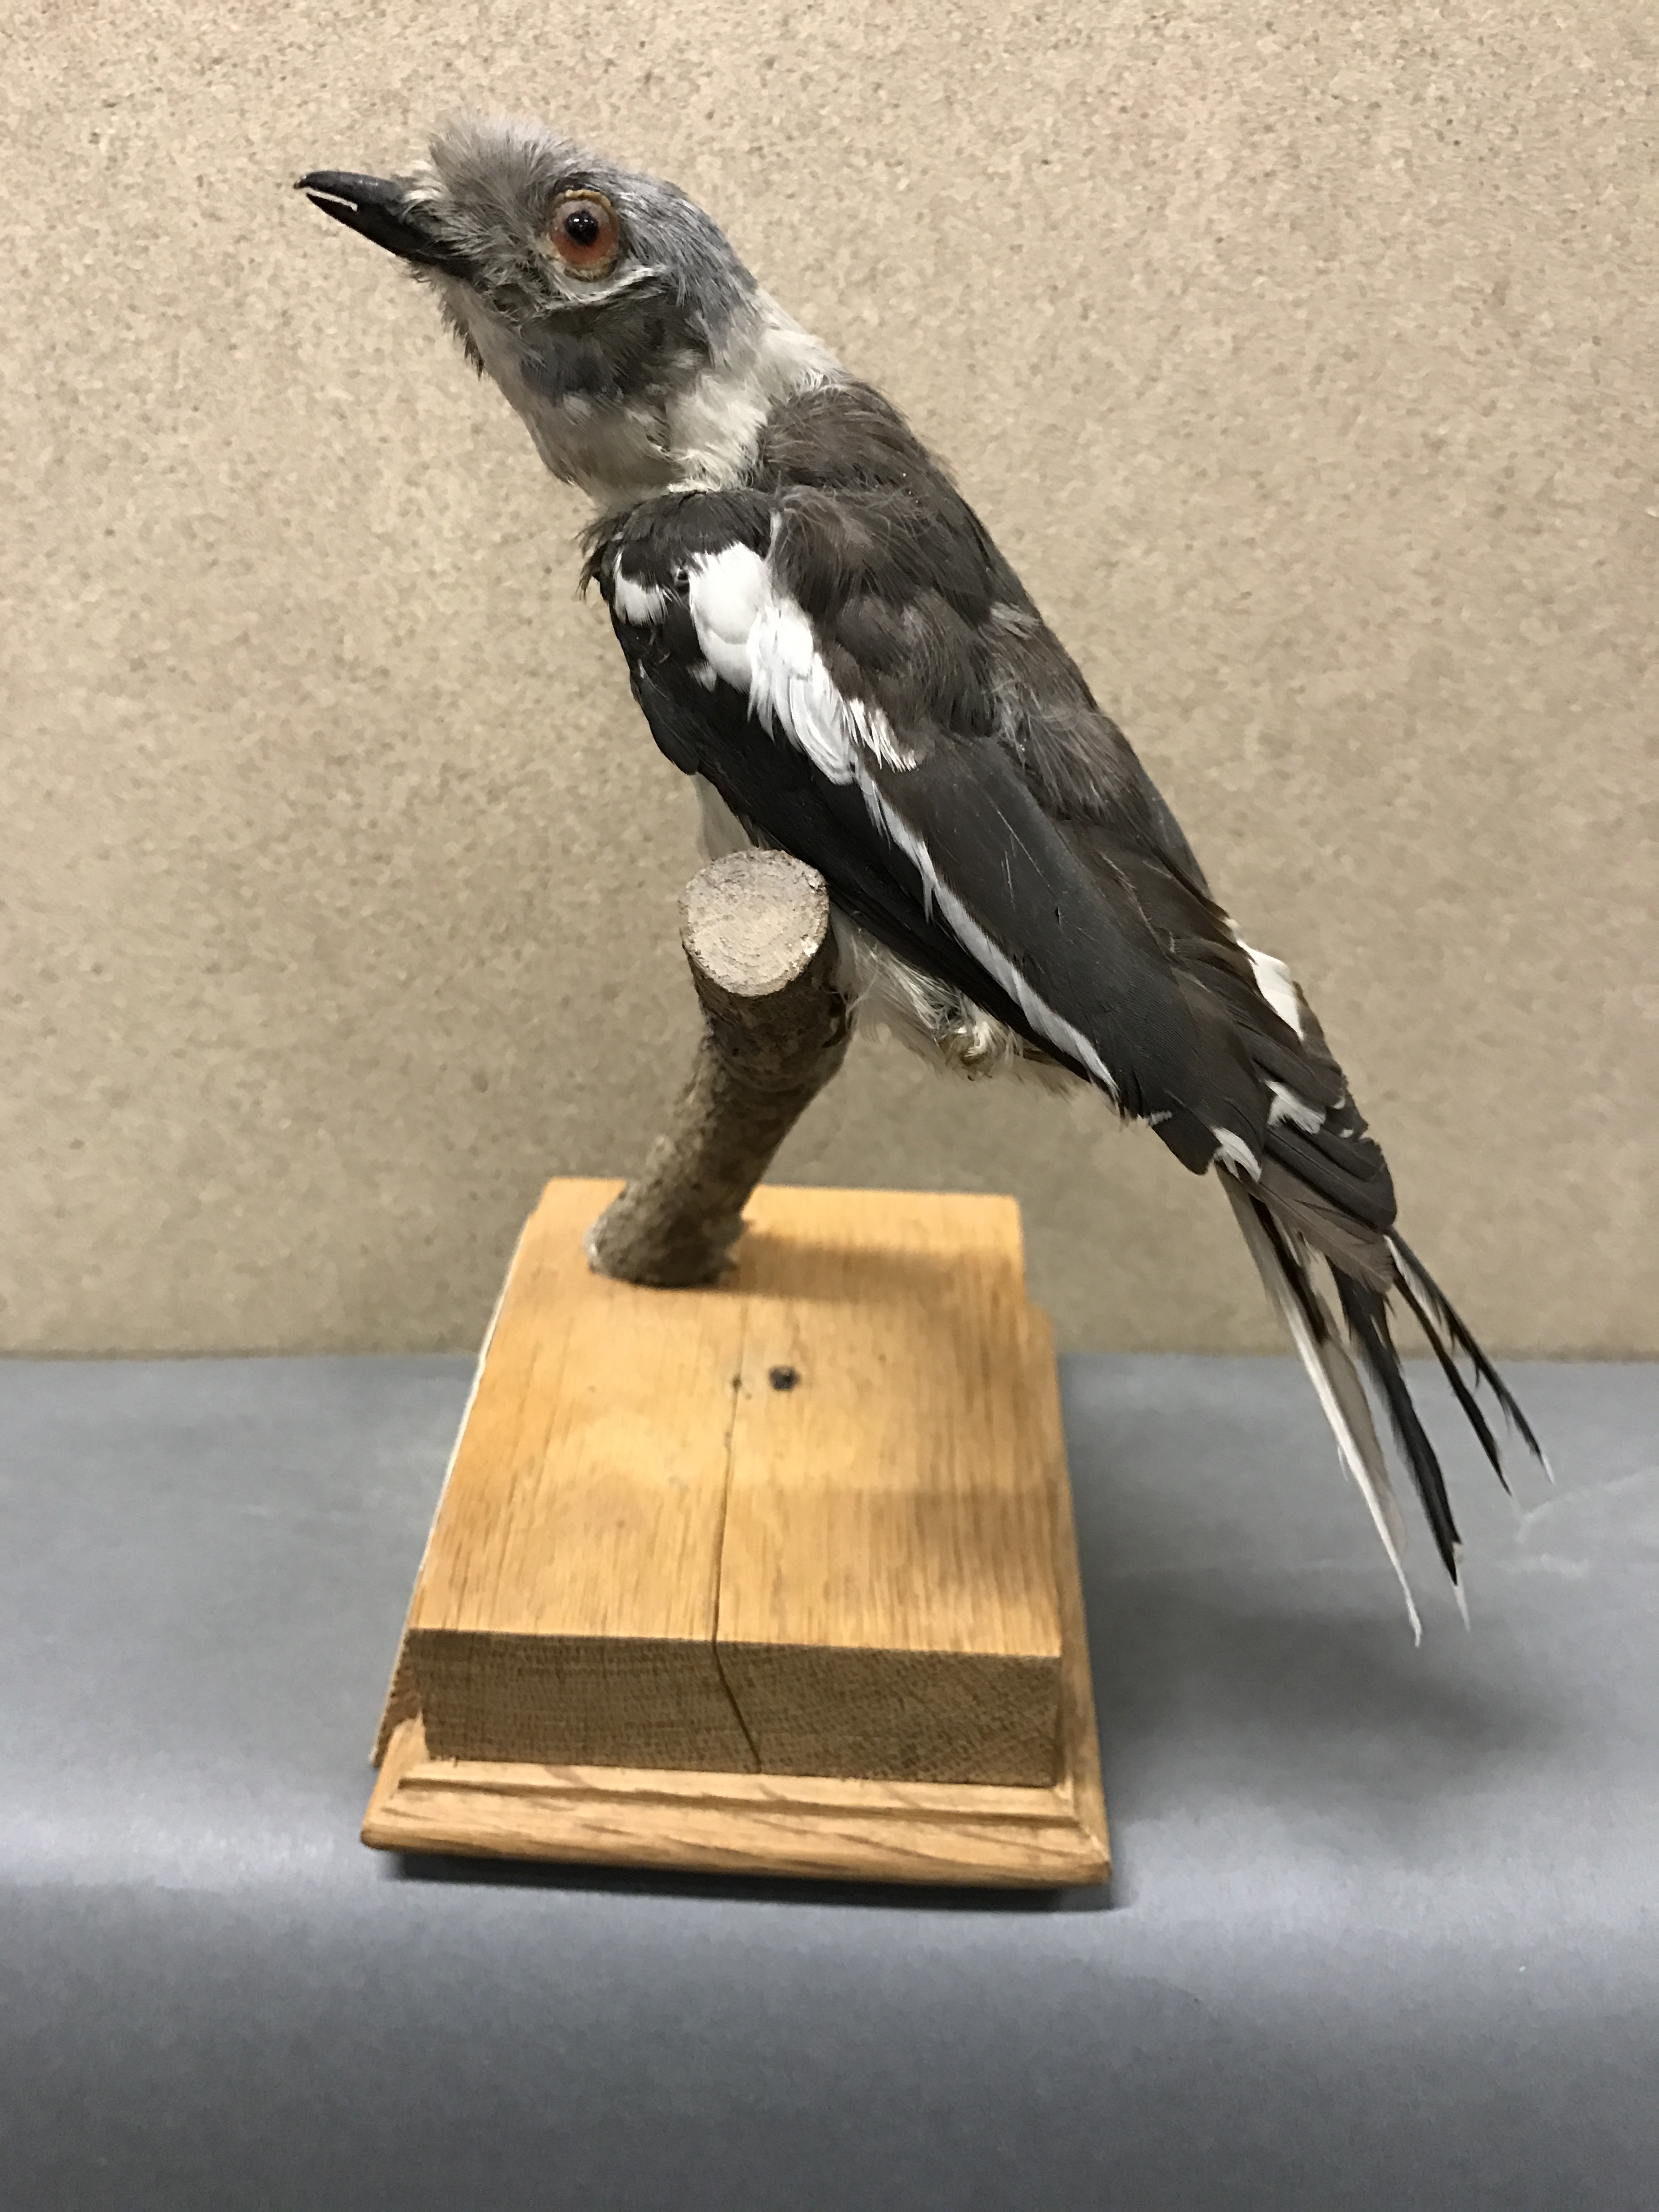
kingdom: Animalia
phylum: Chordata
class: Aves
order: Passeriformes
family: Prionopidae
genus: Prionops
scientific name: Prionops plumatus
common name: White-crested helmetshrike
